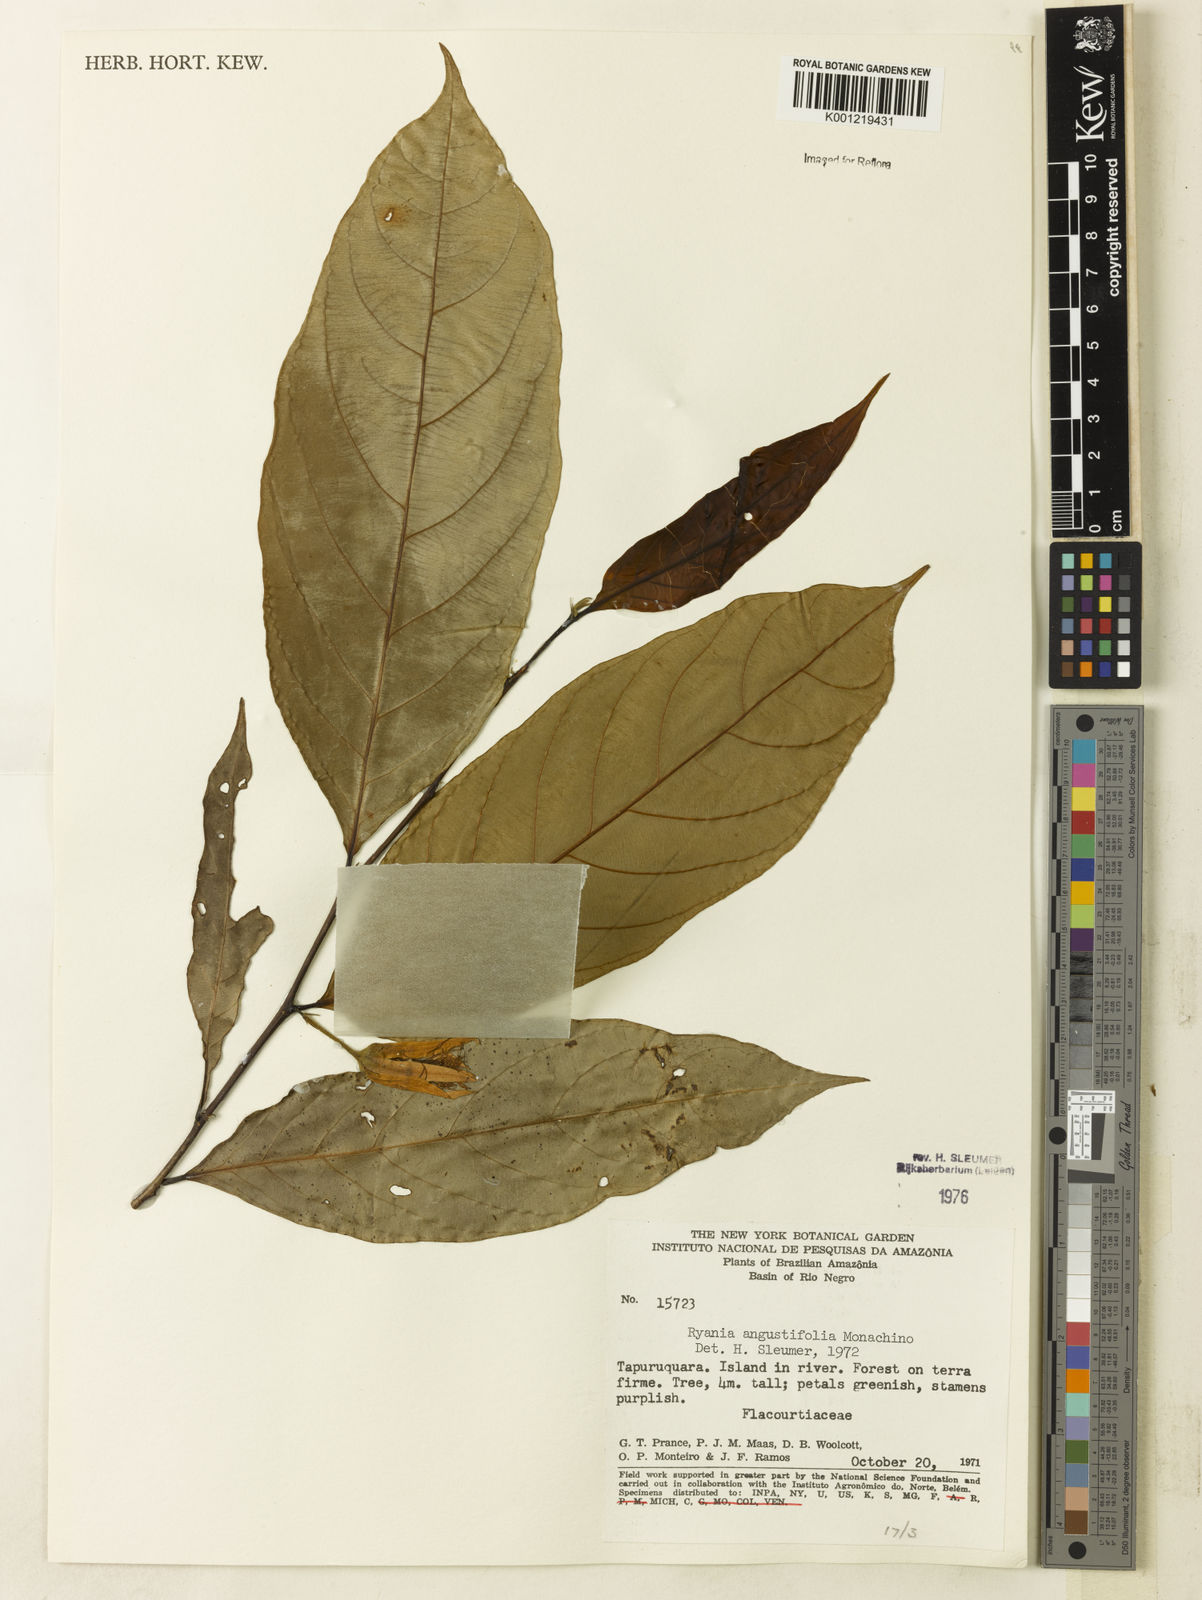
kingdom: Plantae
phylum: Tracheophyta
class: Magnoliopsida
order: Malpighiales
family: Salicaceae
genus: Ryania
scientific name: Ryania angustifolia
